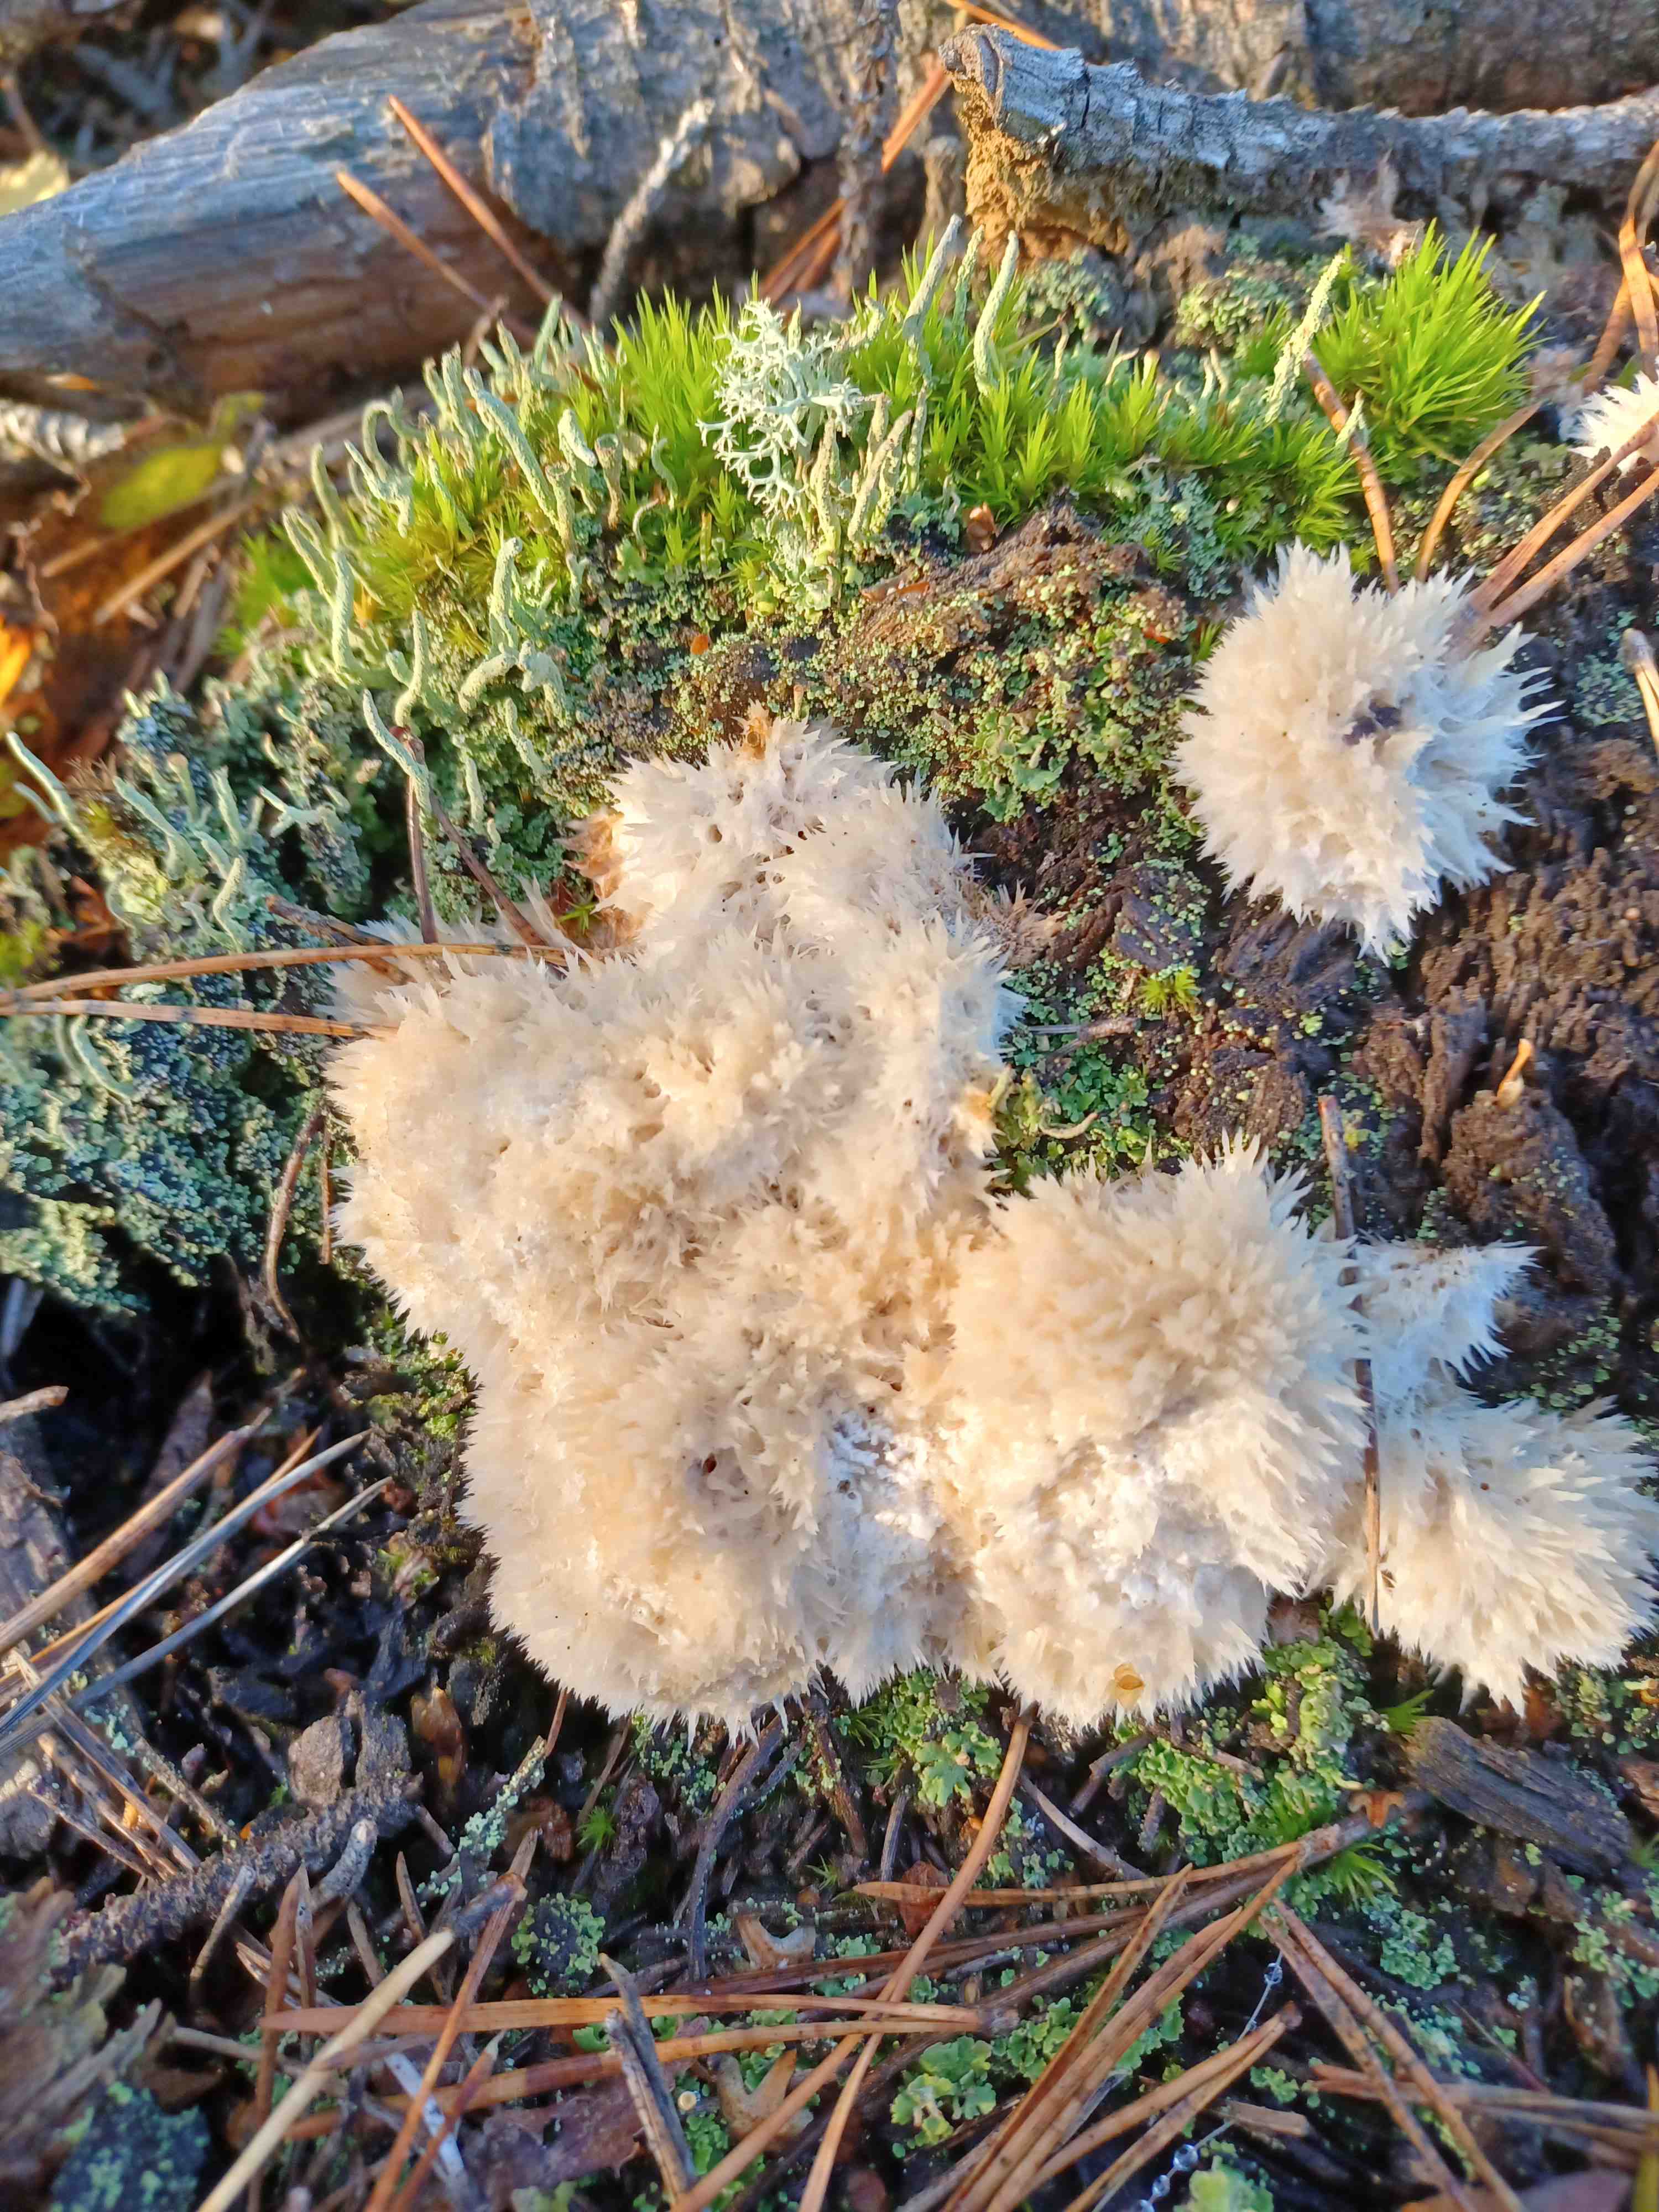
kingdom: Fungi
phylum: Basidiomycota
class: Agaricomycetes
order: Polyporales
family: Dacryobolaceae
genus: Postia
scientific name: Postia ptychogaster
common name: støvende kødporesvamp
